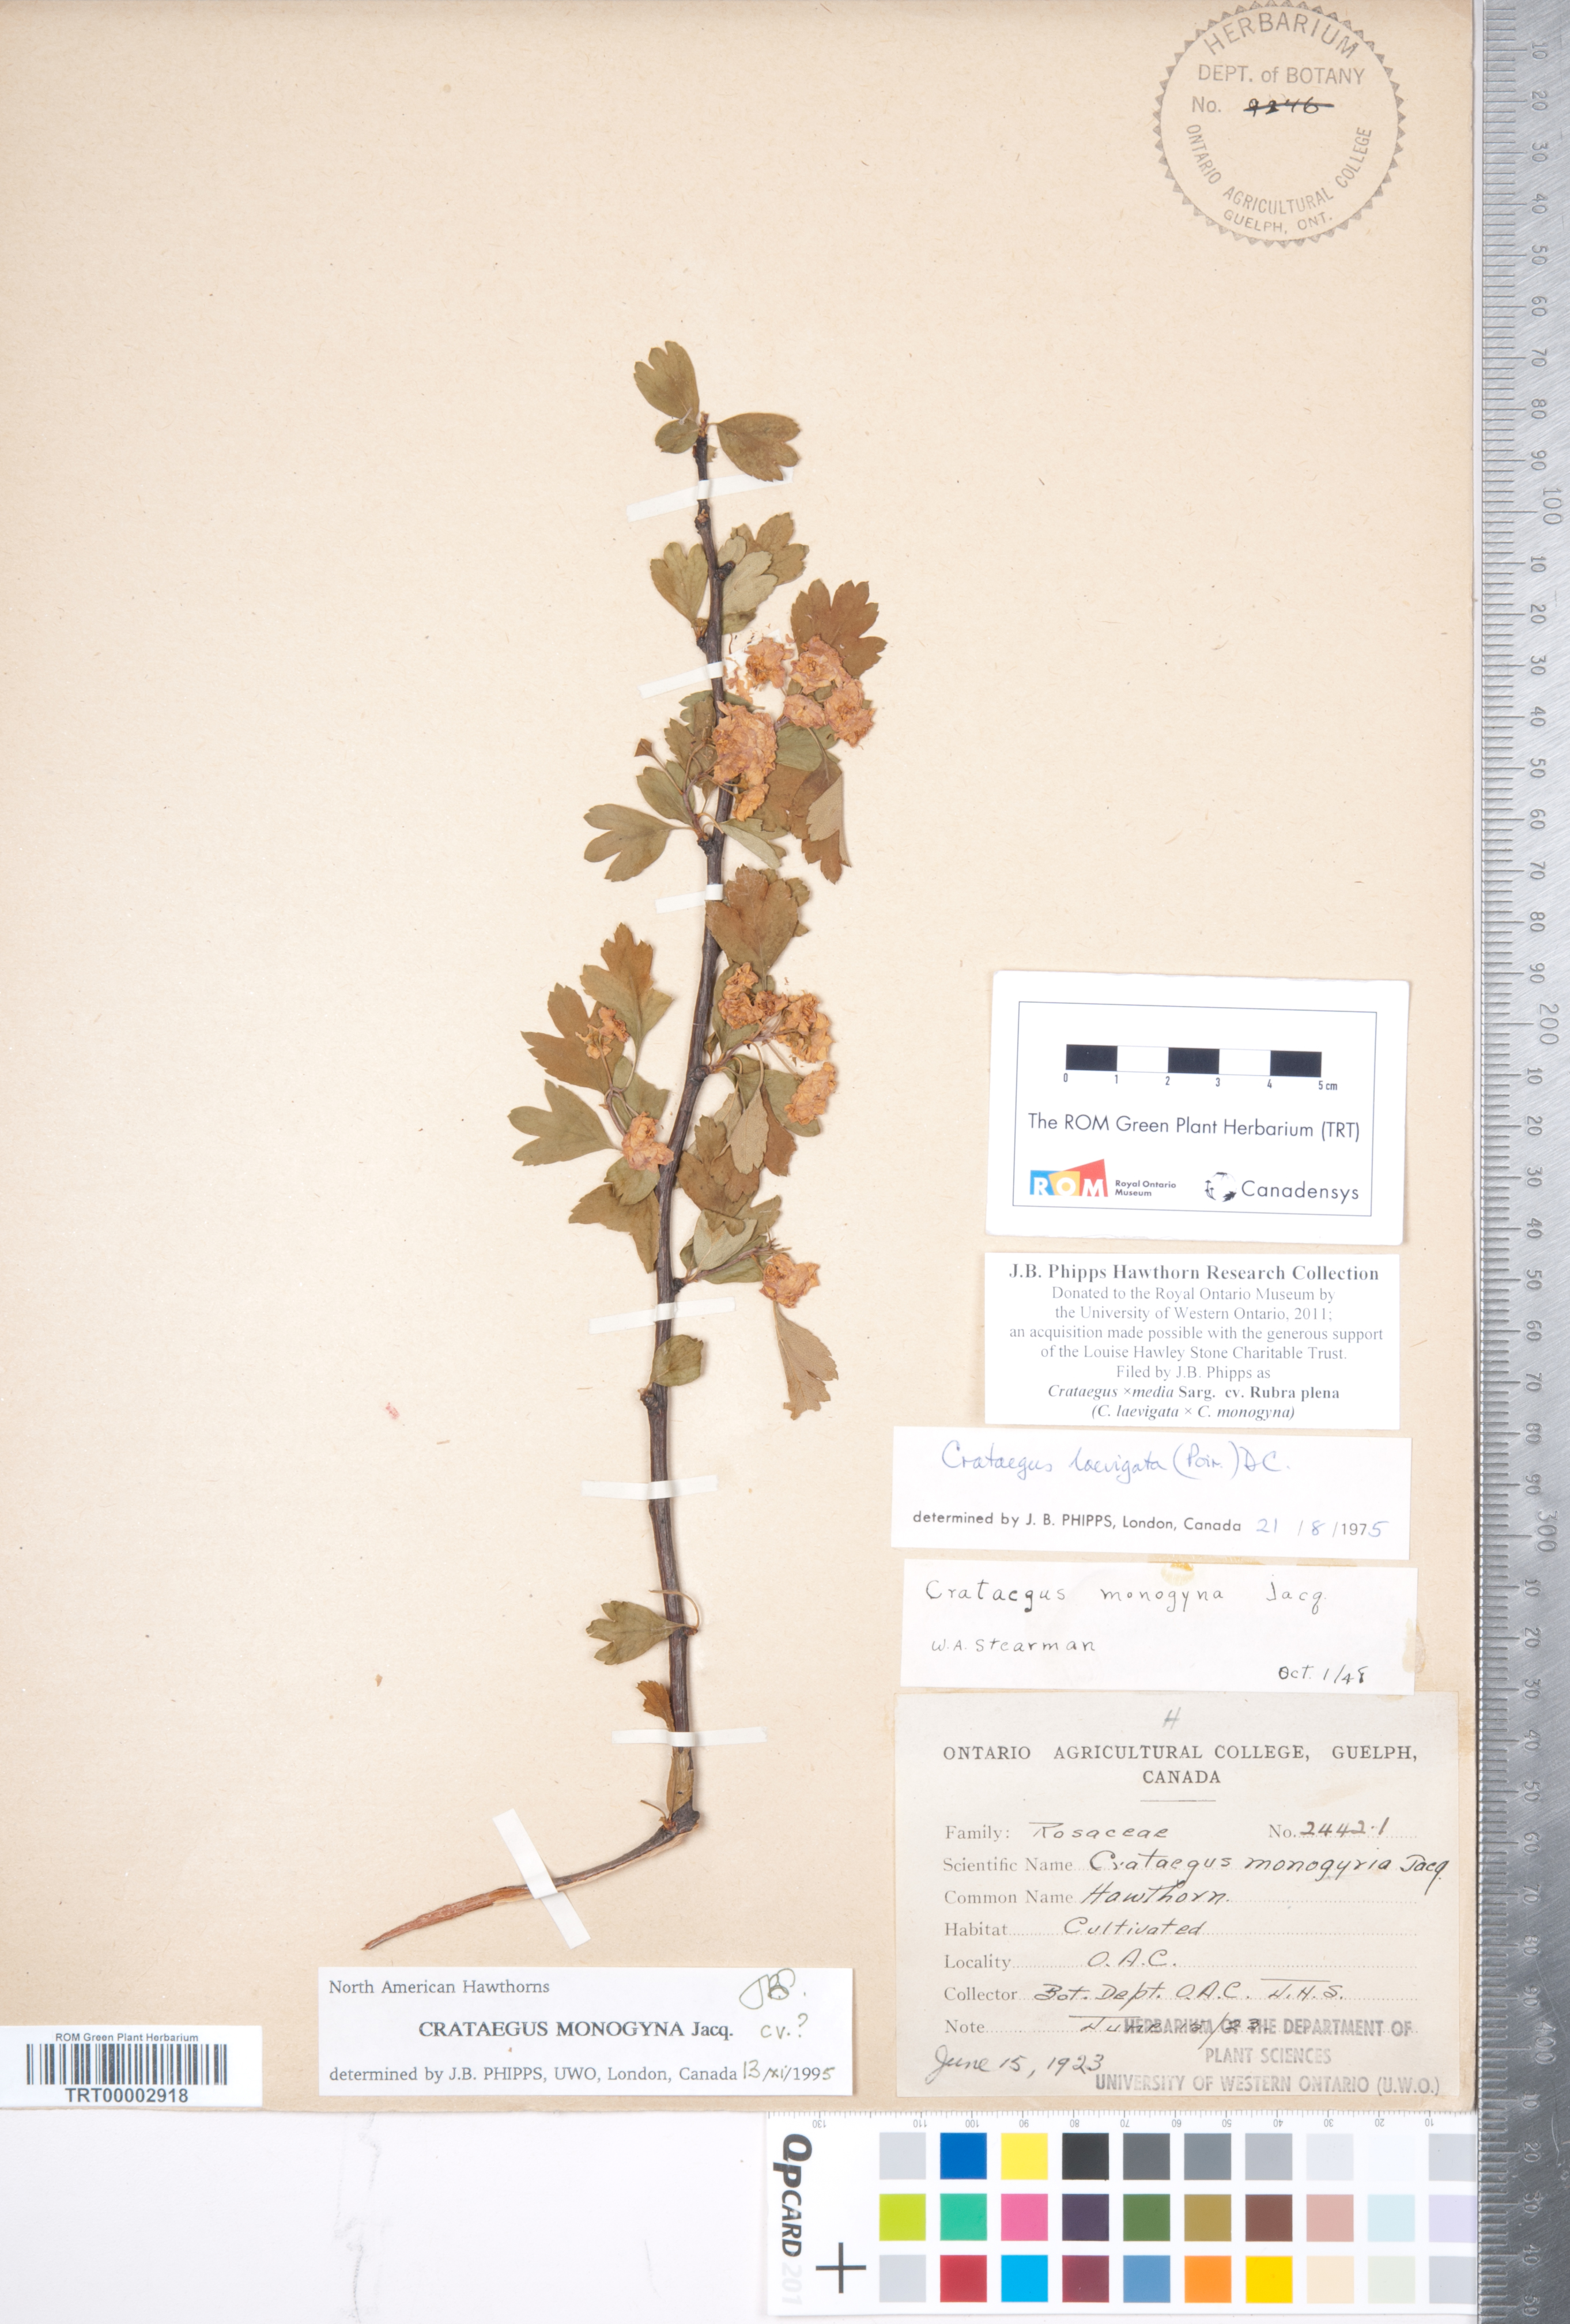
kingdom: Plantae
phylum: Tracheophyta
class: Magnoliopsida
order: Rosales
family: Rosaceae
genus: Crataegus
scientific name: Crataegus media
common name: Intermediate hawthorn
